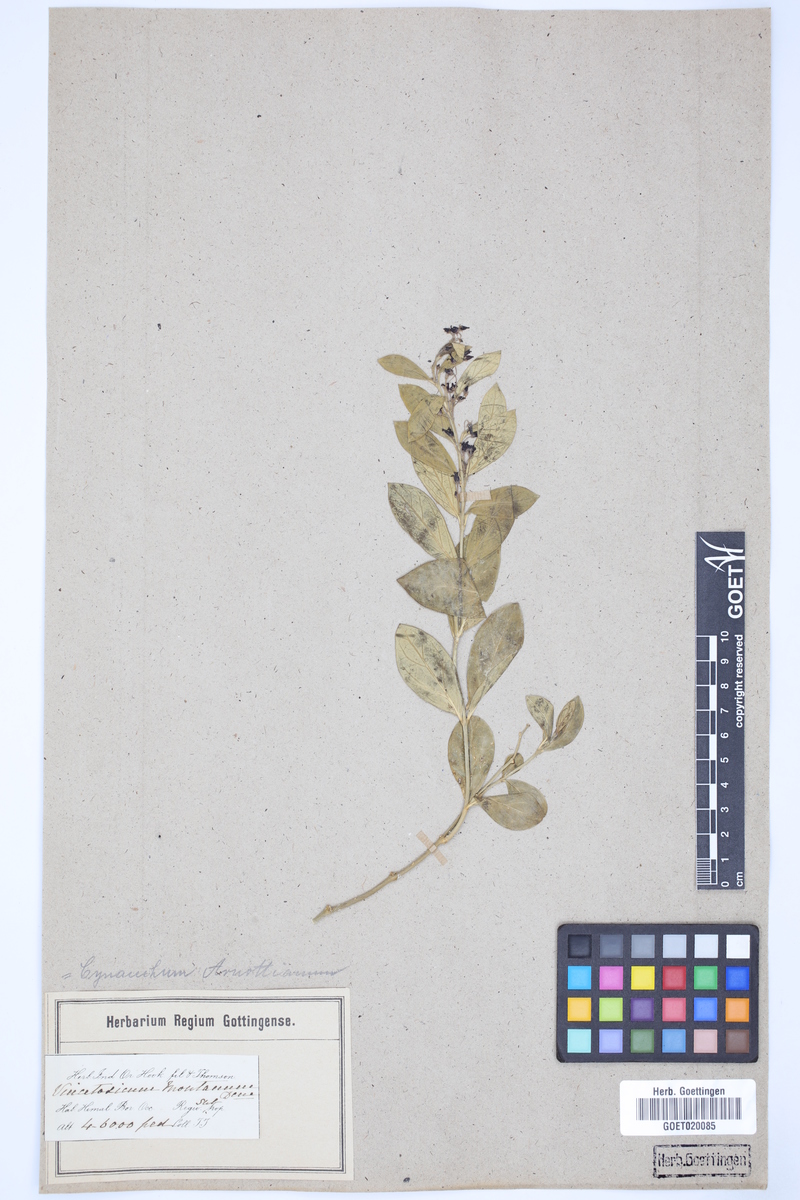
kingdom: Plantae
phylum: Tracheophyta
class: Magnoliopsida
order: Gentianales
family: Apocynaceae
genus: Vincetoxicum
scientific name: Vincetoxicum govanii
